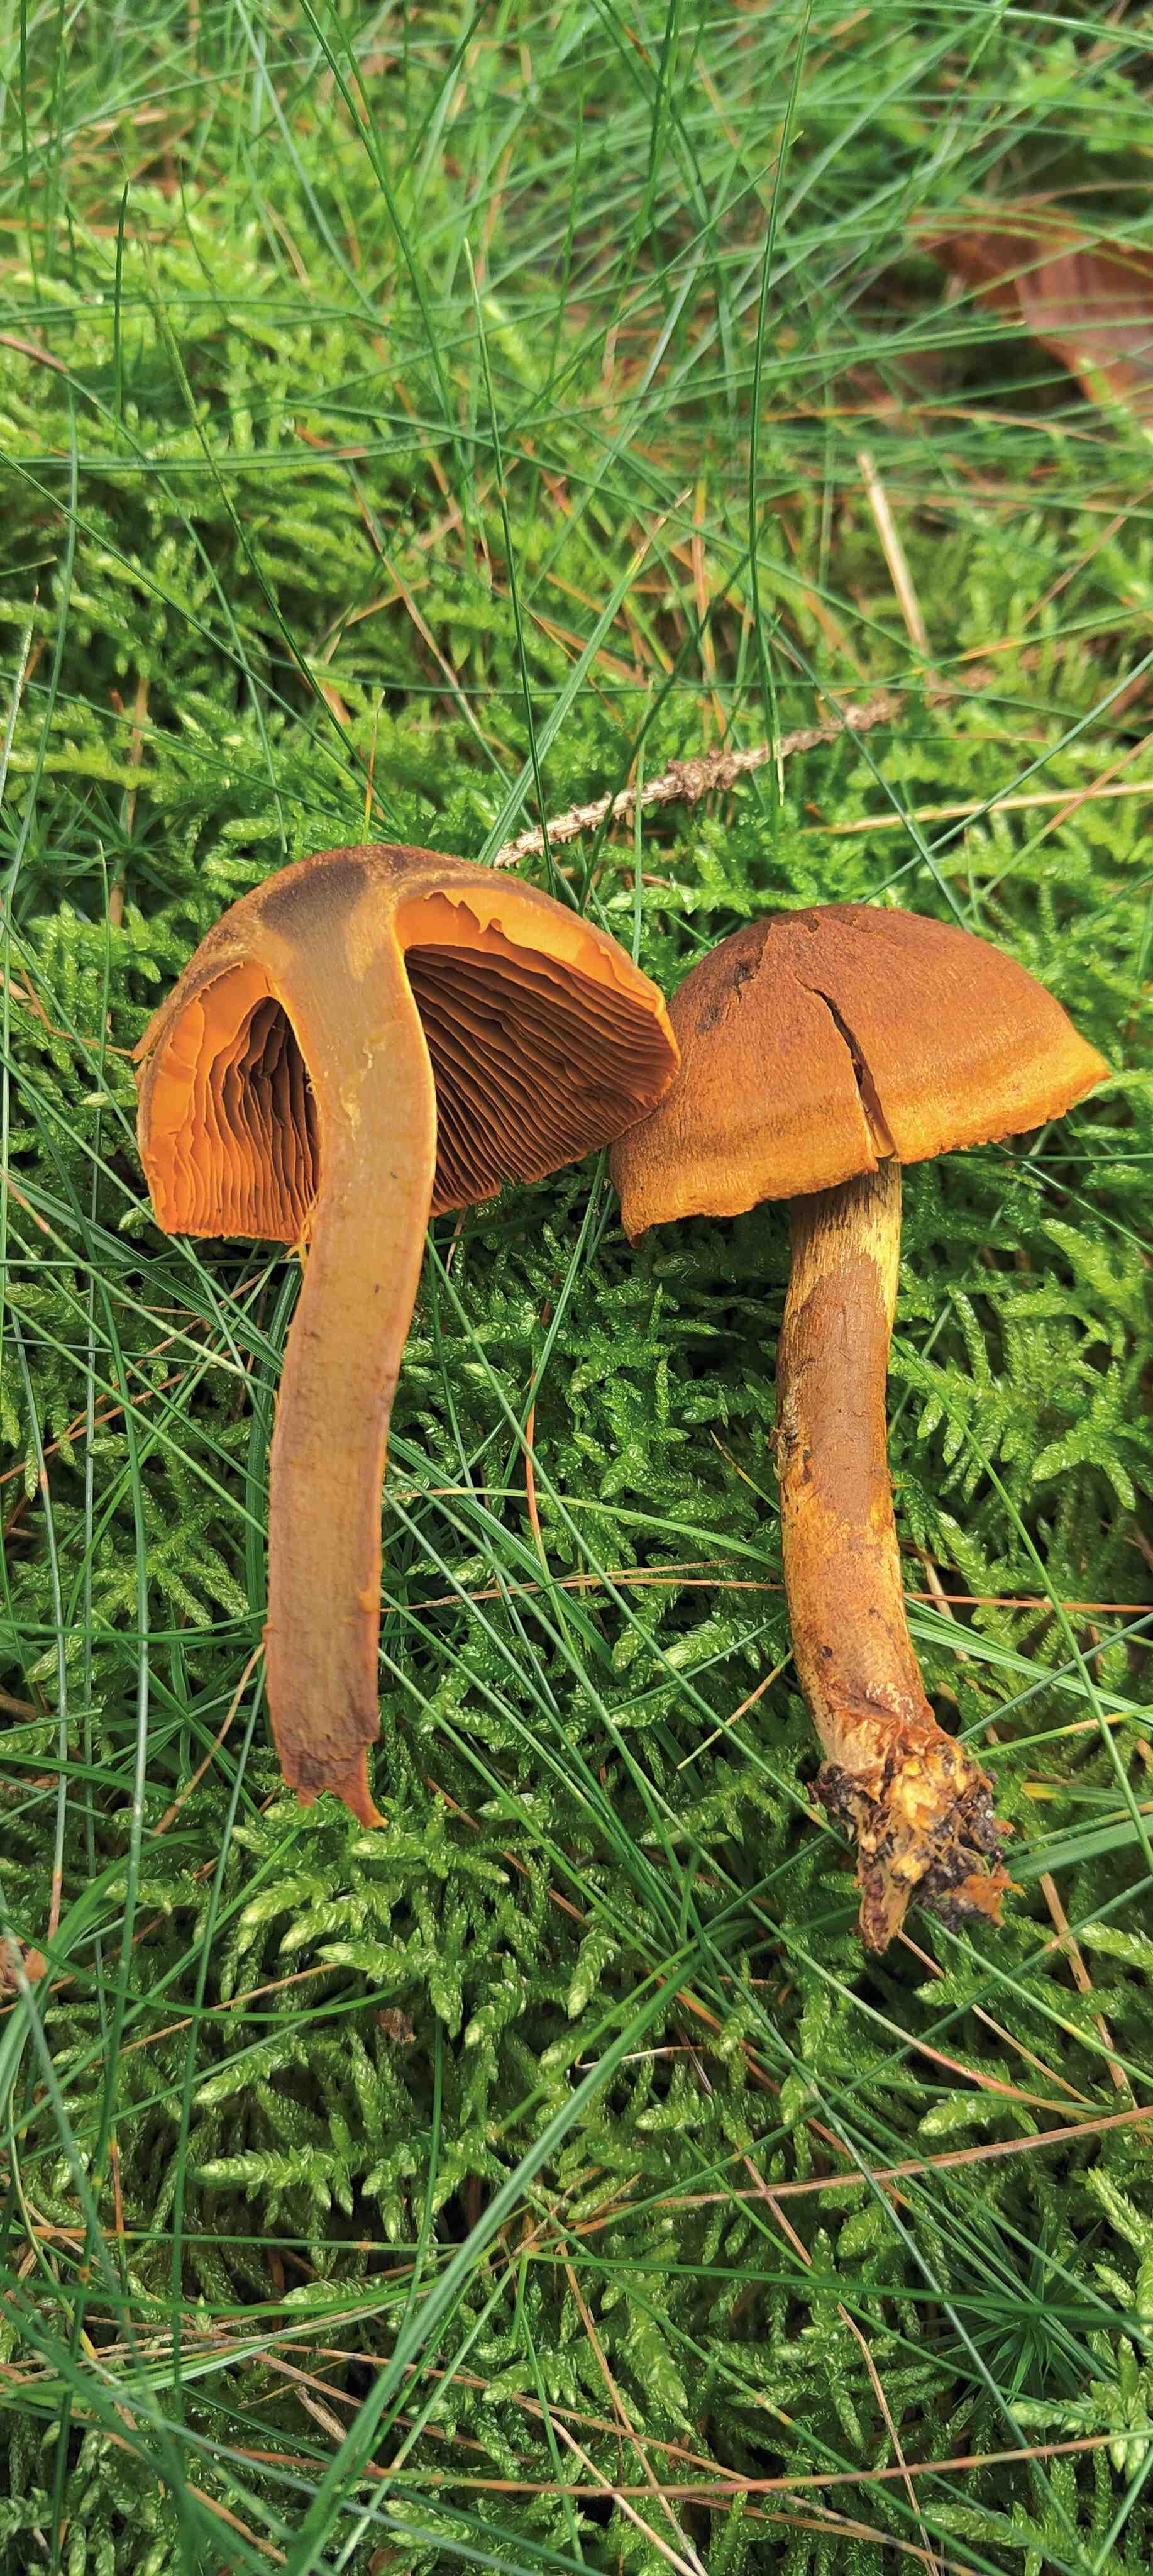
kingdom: Fungi
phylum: Basidiomycota
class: Agaricomycetes
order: Agaricales
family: Cortinariaceae
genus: Cortinarius
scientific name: Cortinarius malicorius
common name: grønkødet slørhat
